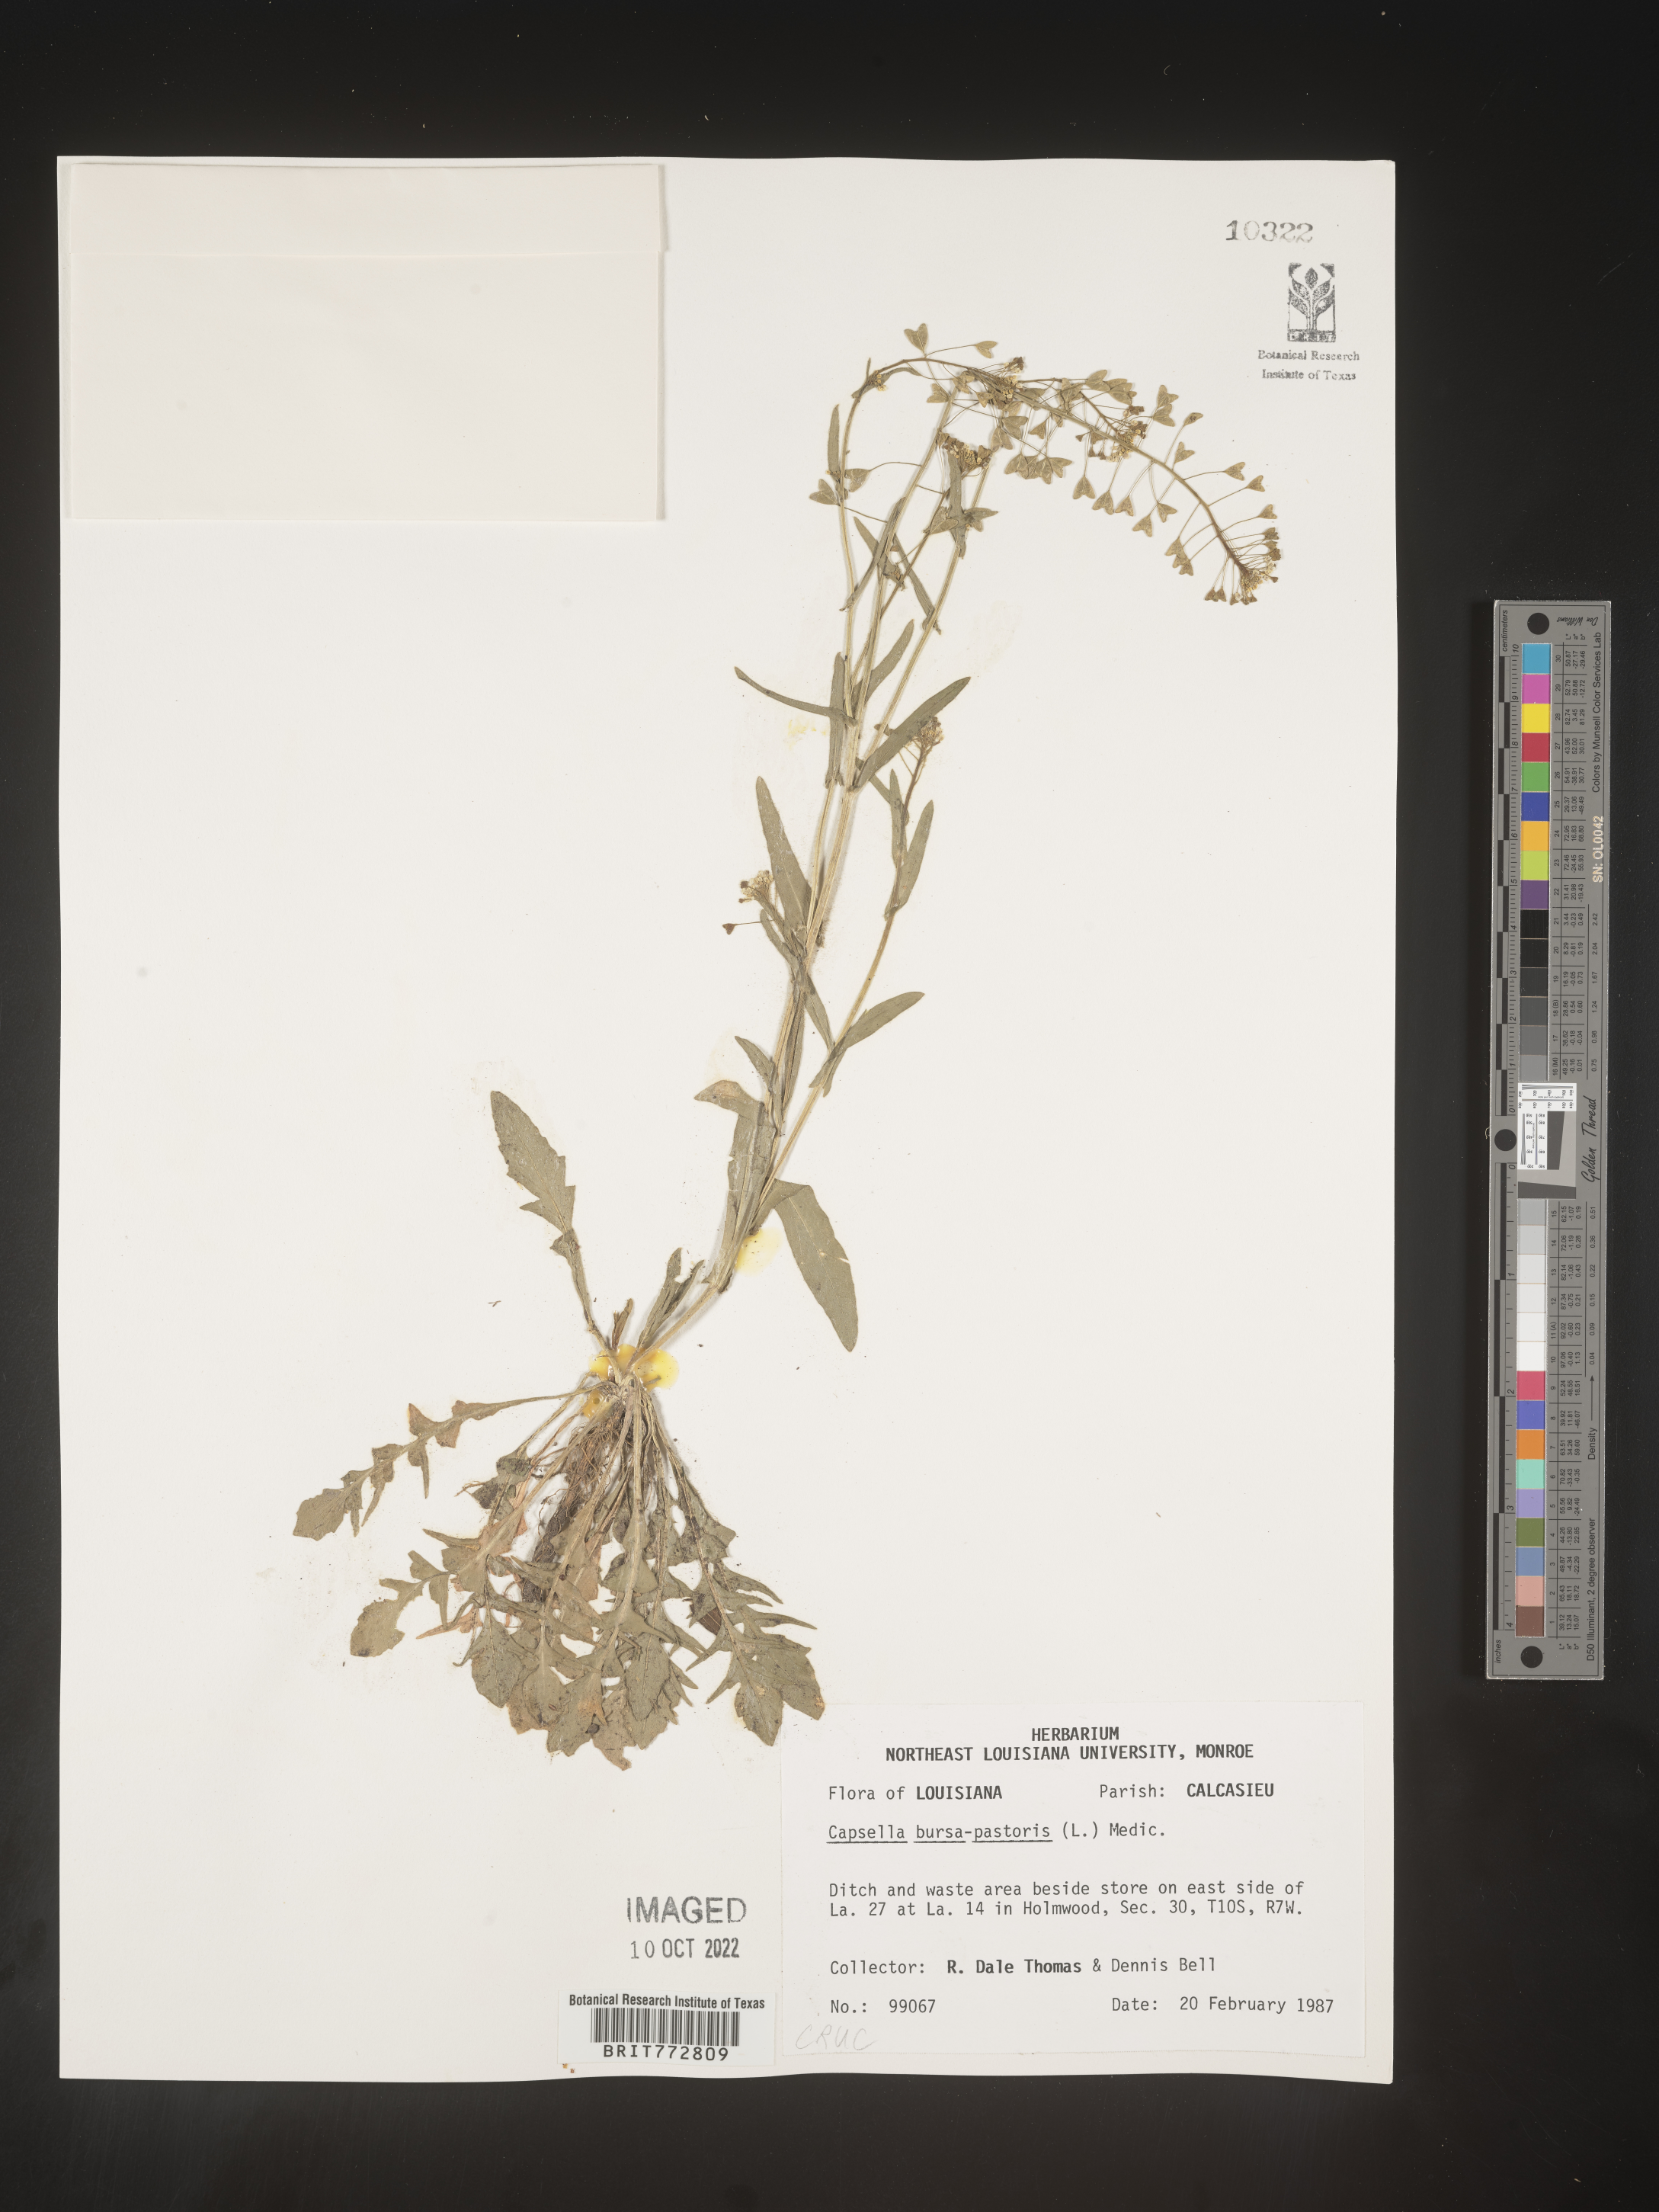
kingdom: Plantae
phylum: Tracheophyta
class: Magnoliopsida
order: Brassicales
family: Brassicaceae
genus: Capsella
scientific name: Capsella bursa-pastoris
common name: Shepherd's purse
